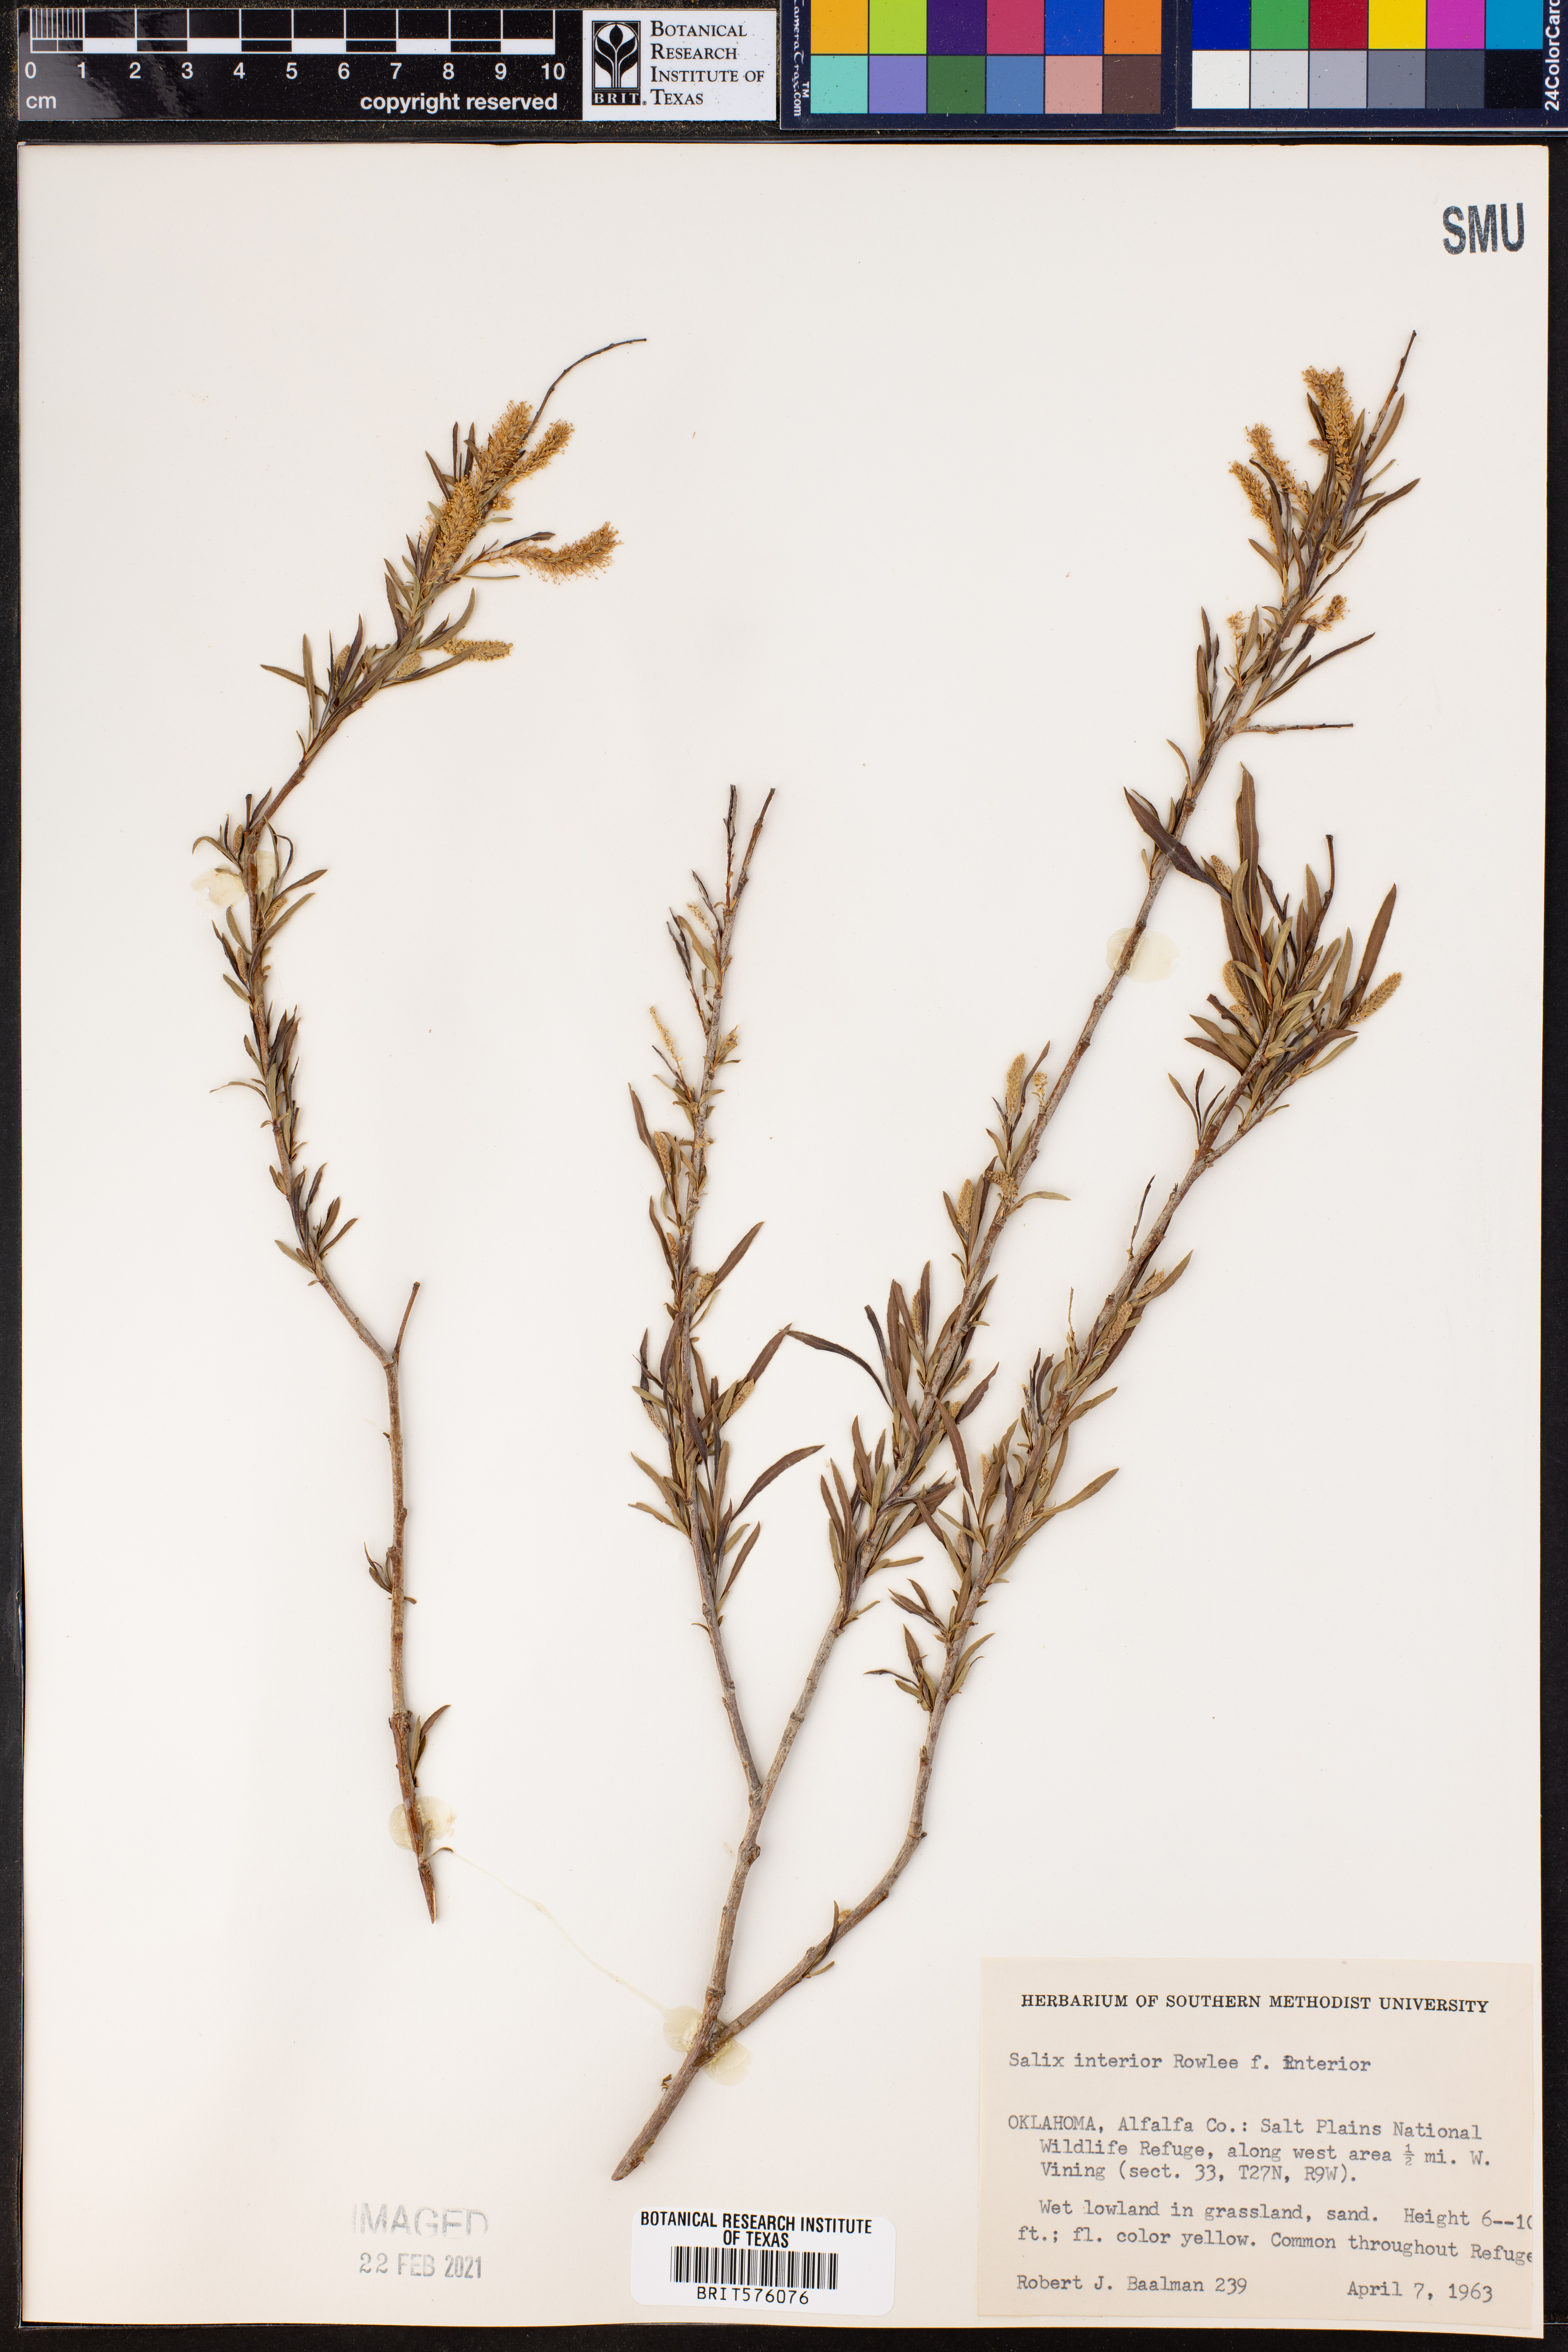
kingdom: Plantae
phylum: Tracheophyta
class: Magnoliopsida
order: Malpighiales
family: Salicaceae
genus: Salix
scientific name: Salix interior
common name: Sandbar willow
